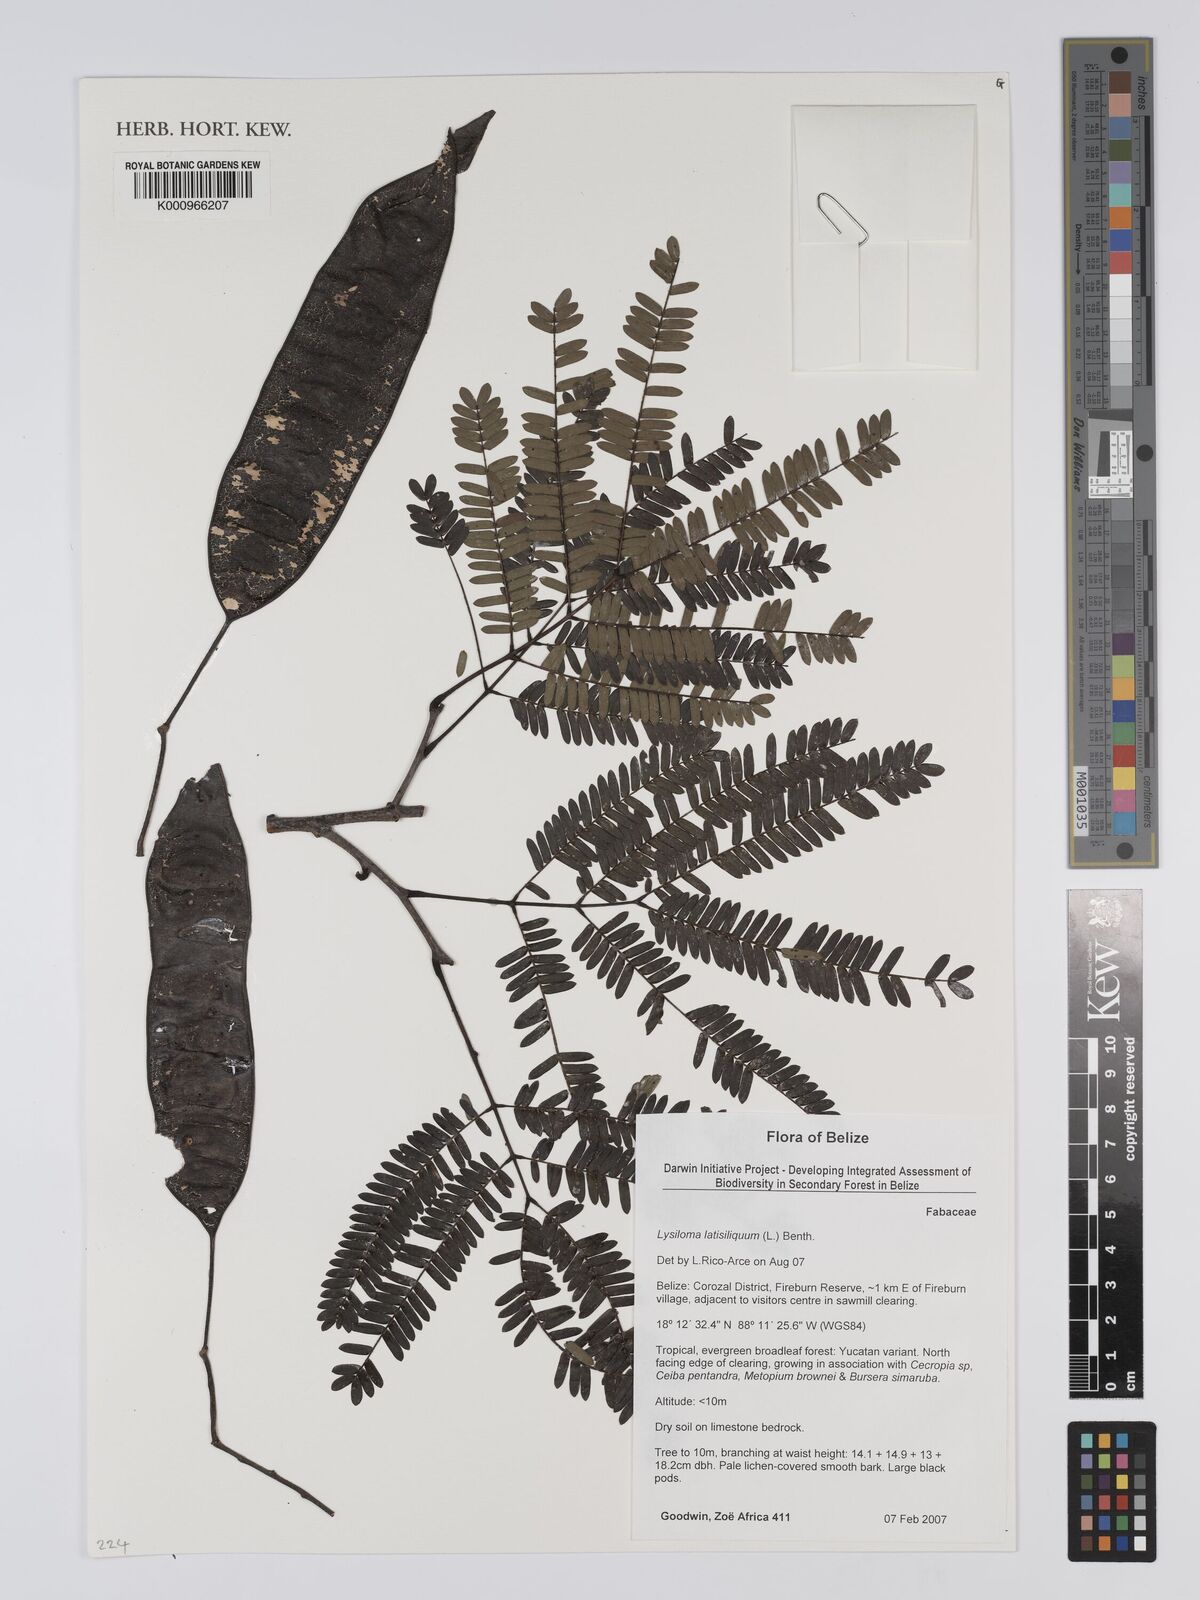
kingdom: Plantae
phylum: Tracheophyta
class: Magnoliopsida
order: Fabales
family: Fabaceae
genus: Lysiloma
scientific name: Lysiloma latisiliquum
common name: Wild tamarind
